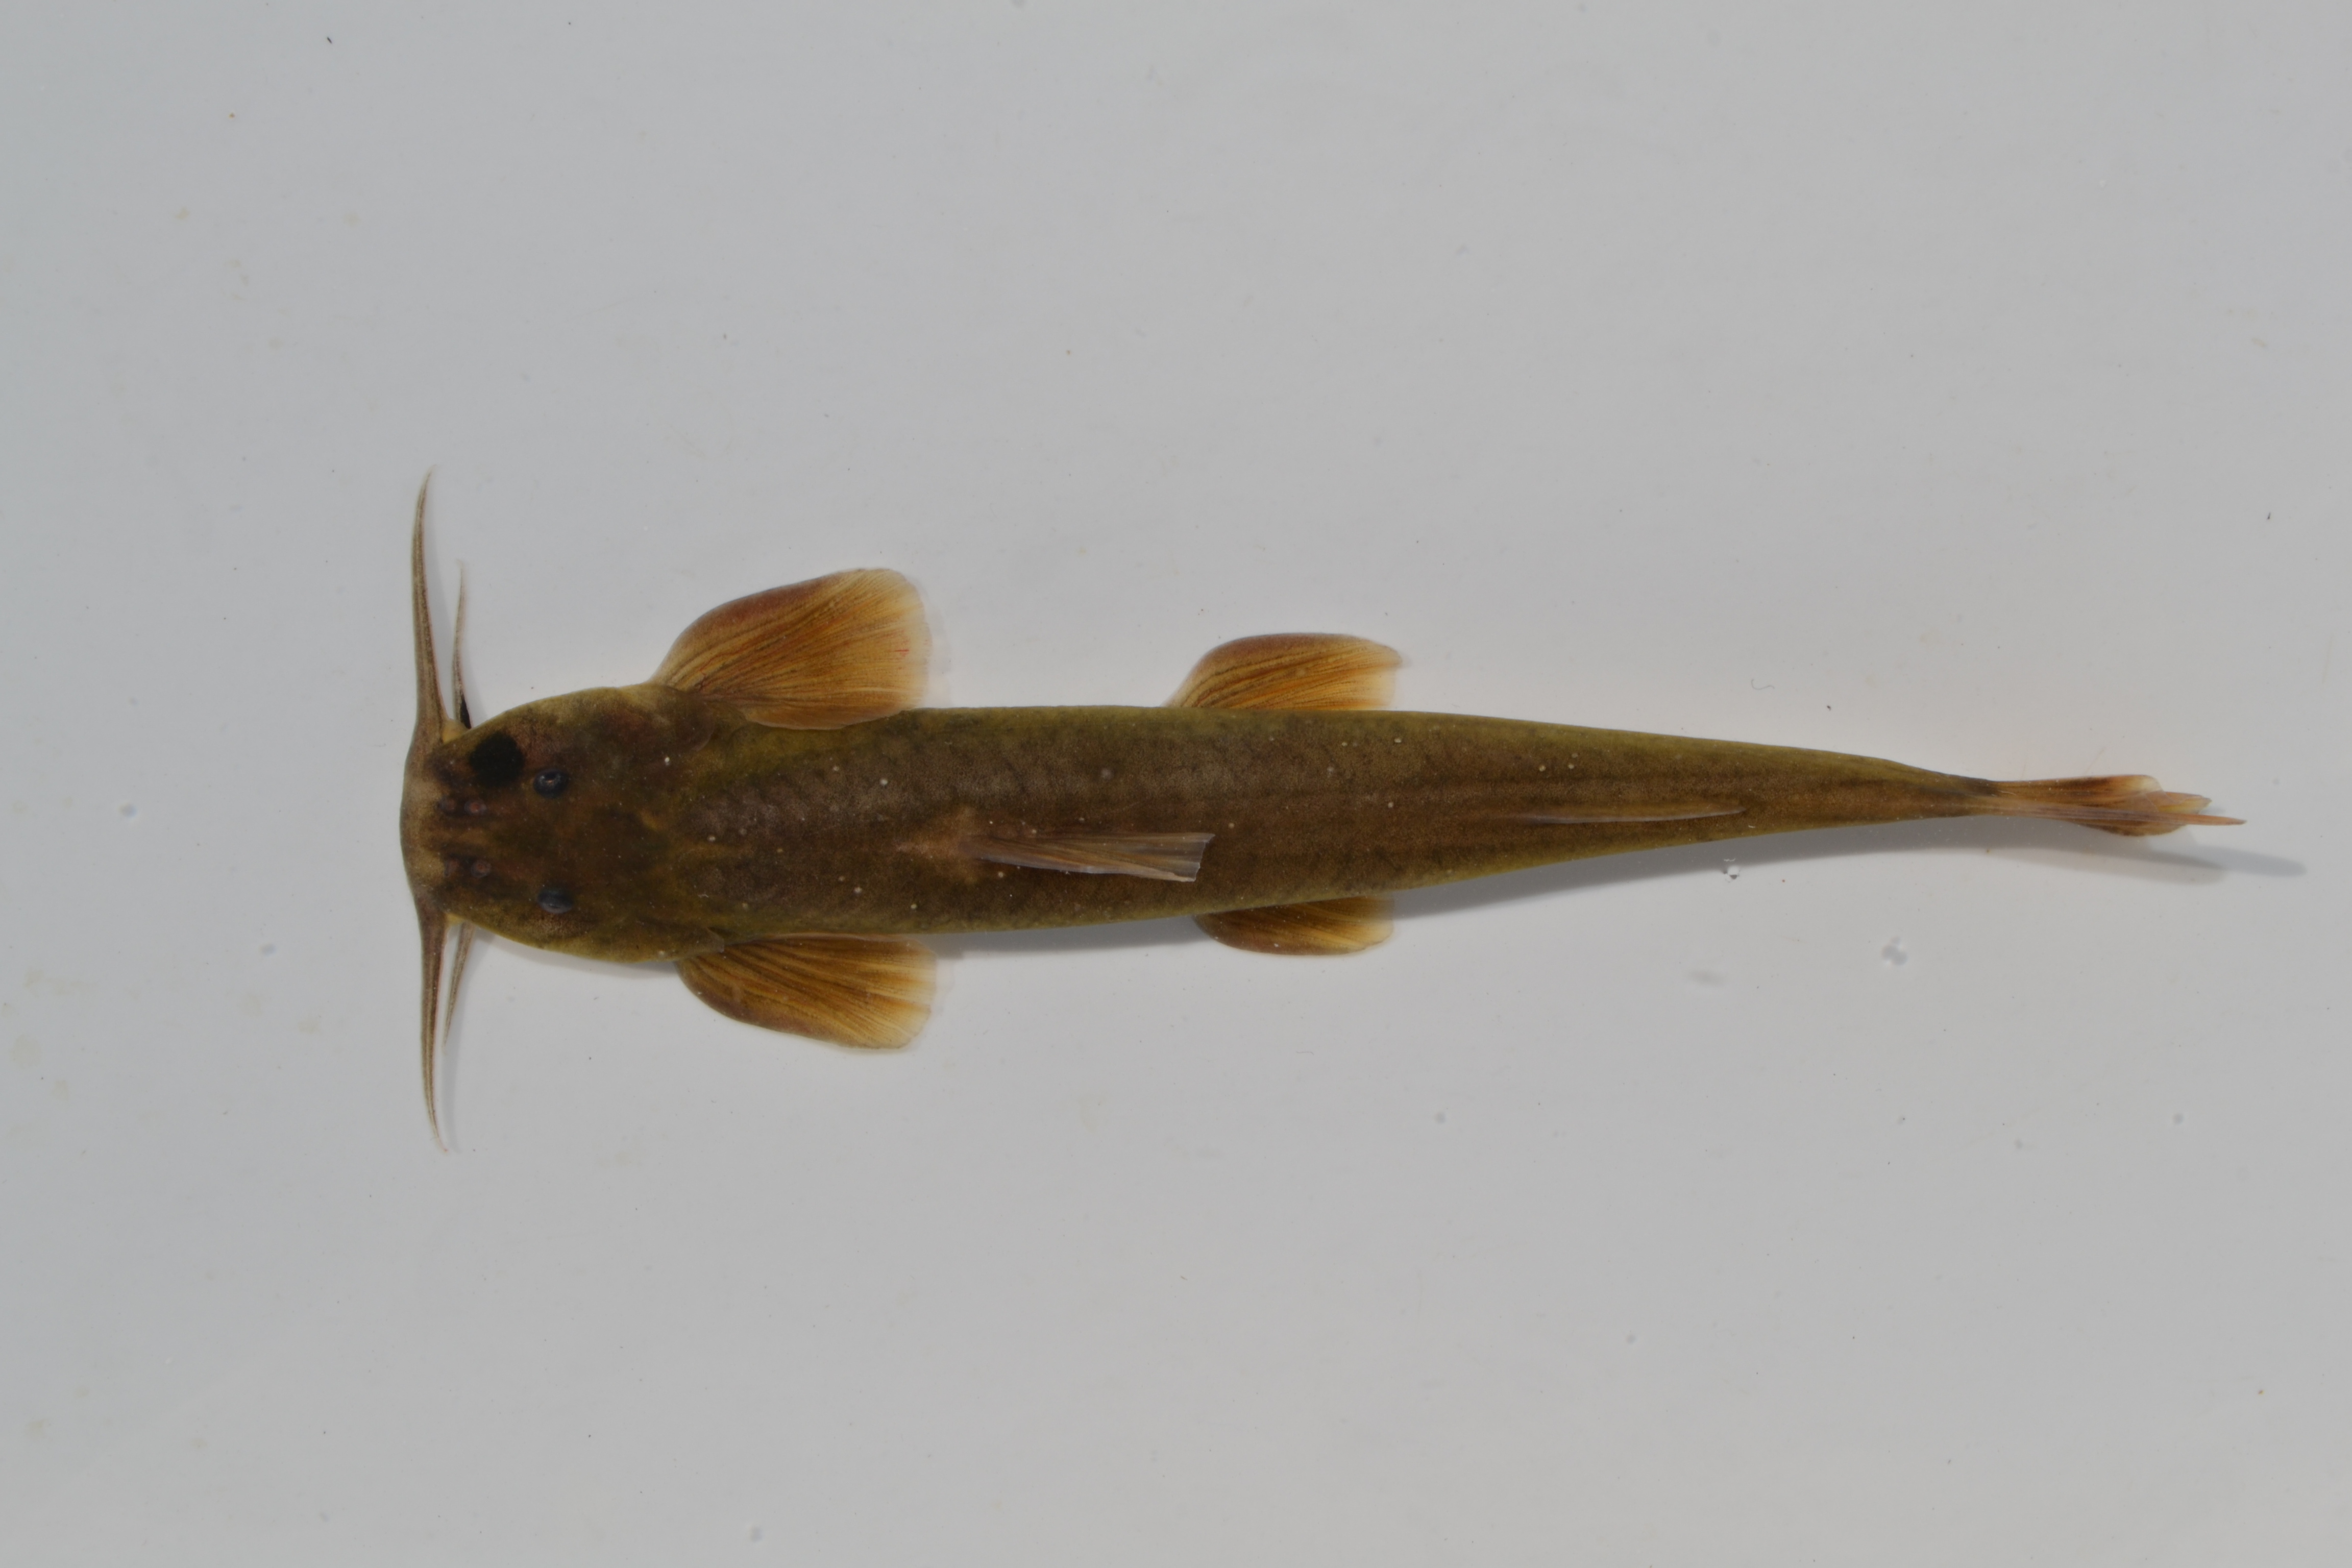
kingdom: Animalia
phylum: Chordata
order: Siluriformes
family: Amphiliidae
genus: Amphilius
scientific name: Amphilius natalensis
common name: Natal mountain catfish
